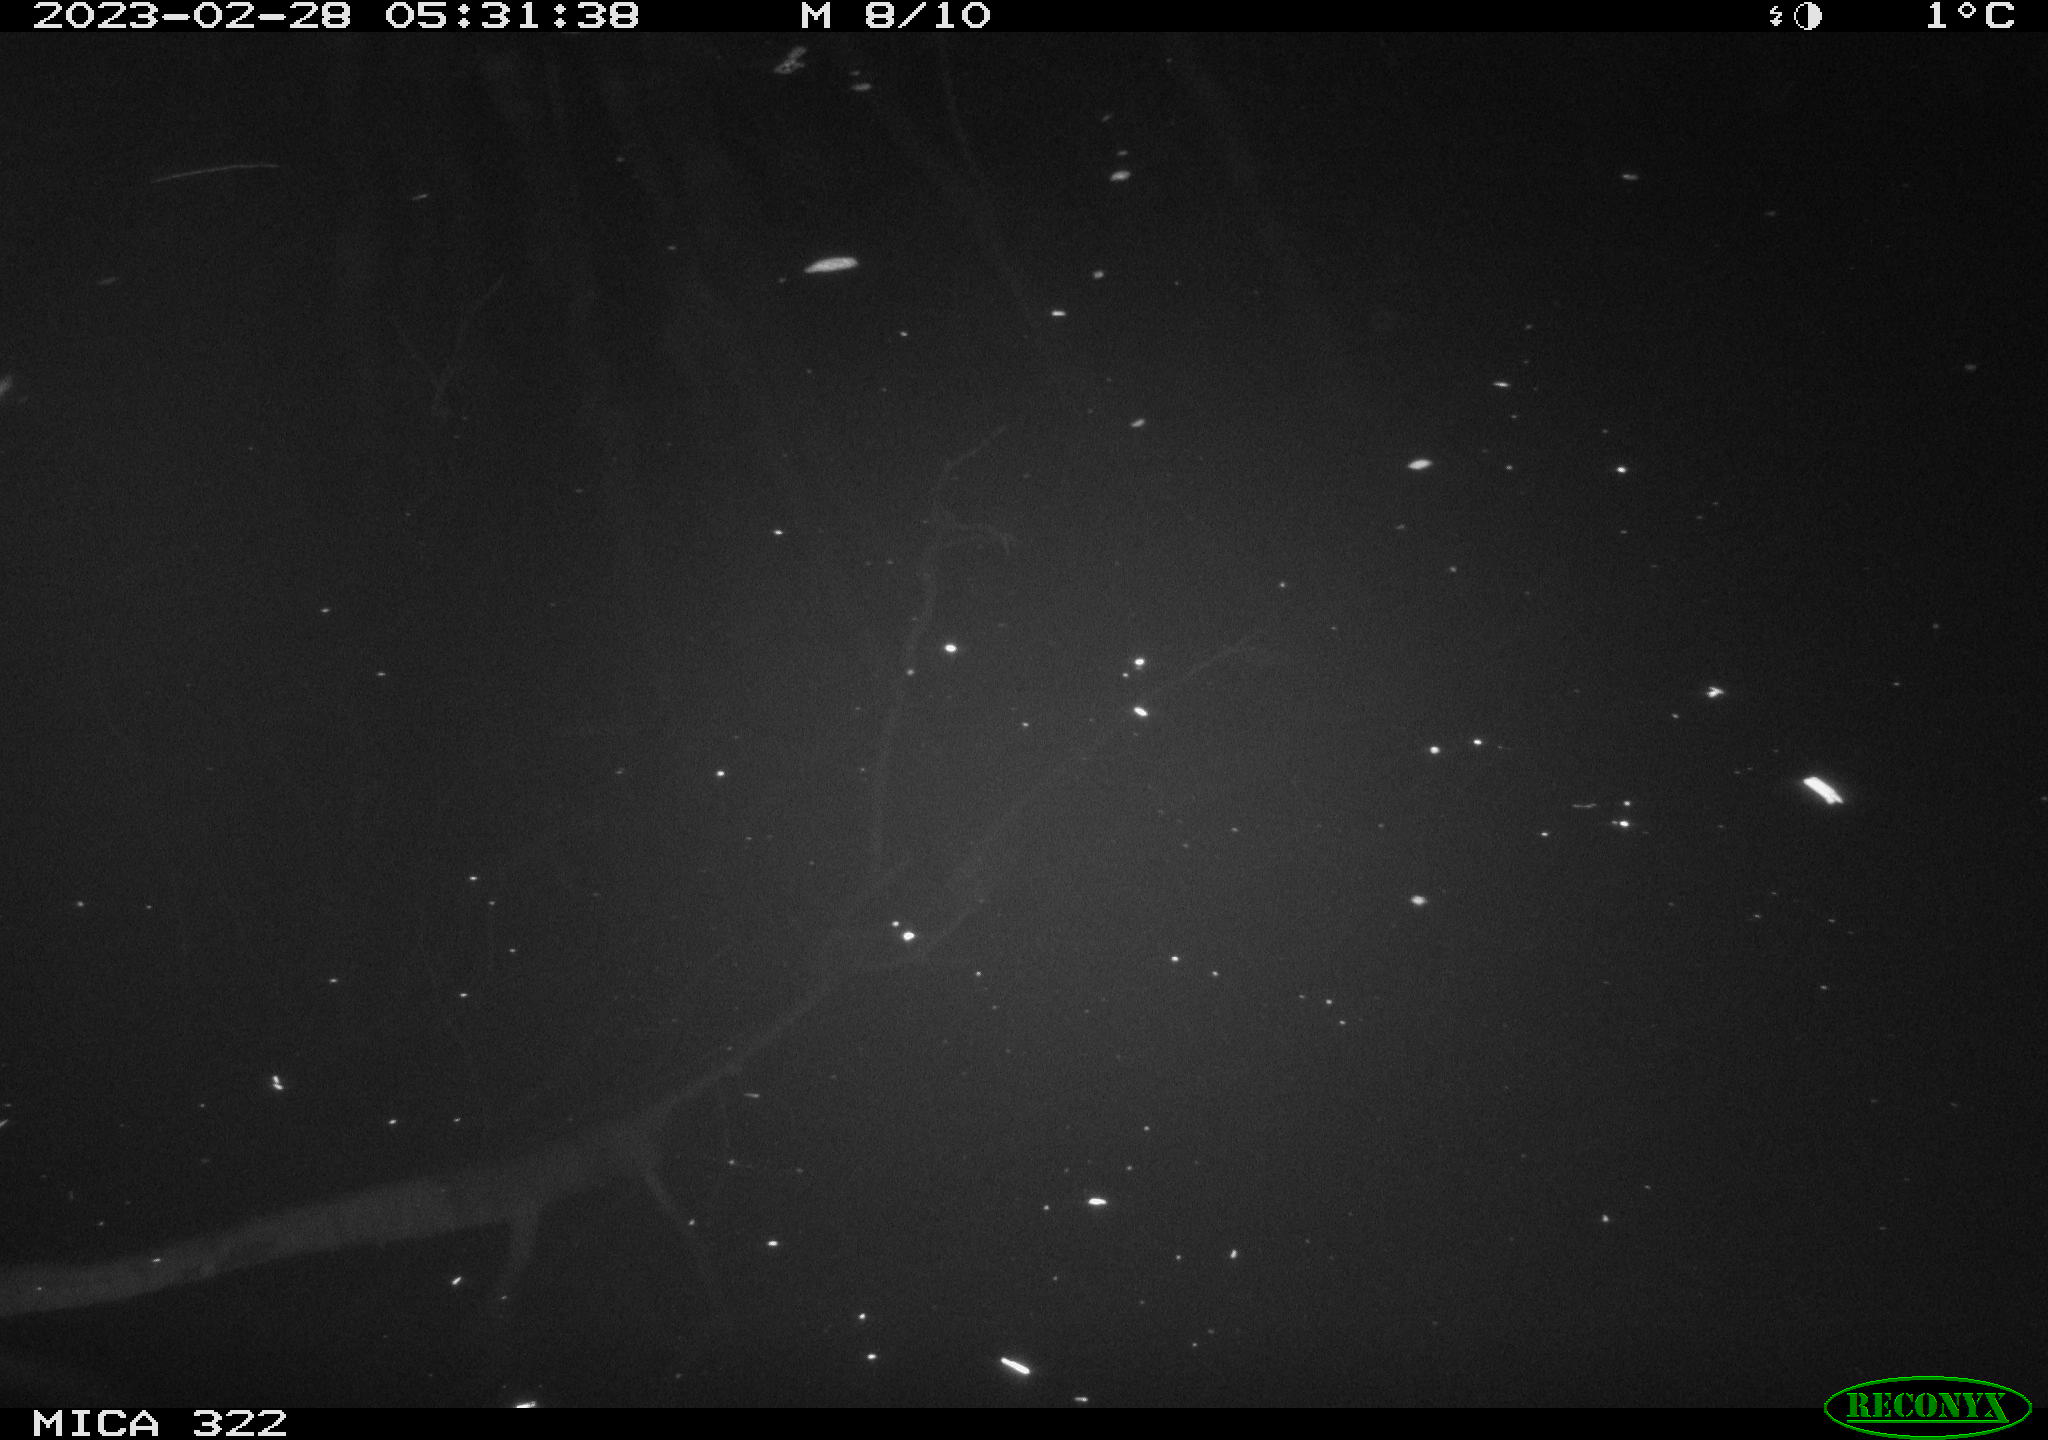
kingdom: Animalia
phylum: Chordata
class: Mammalia
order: Rodentia
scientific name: Rodentia
